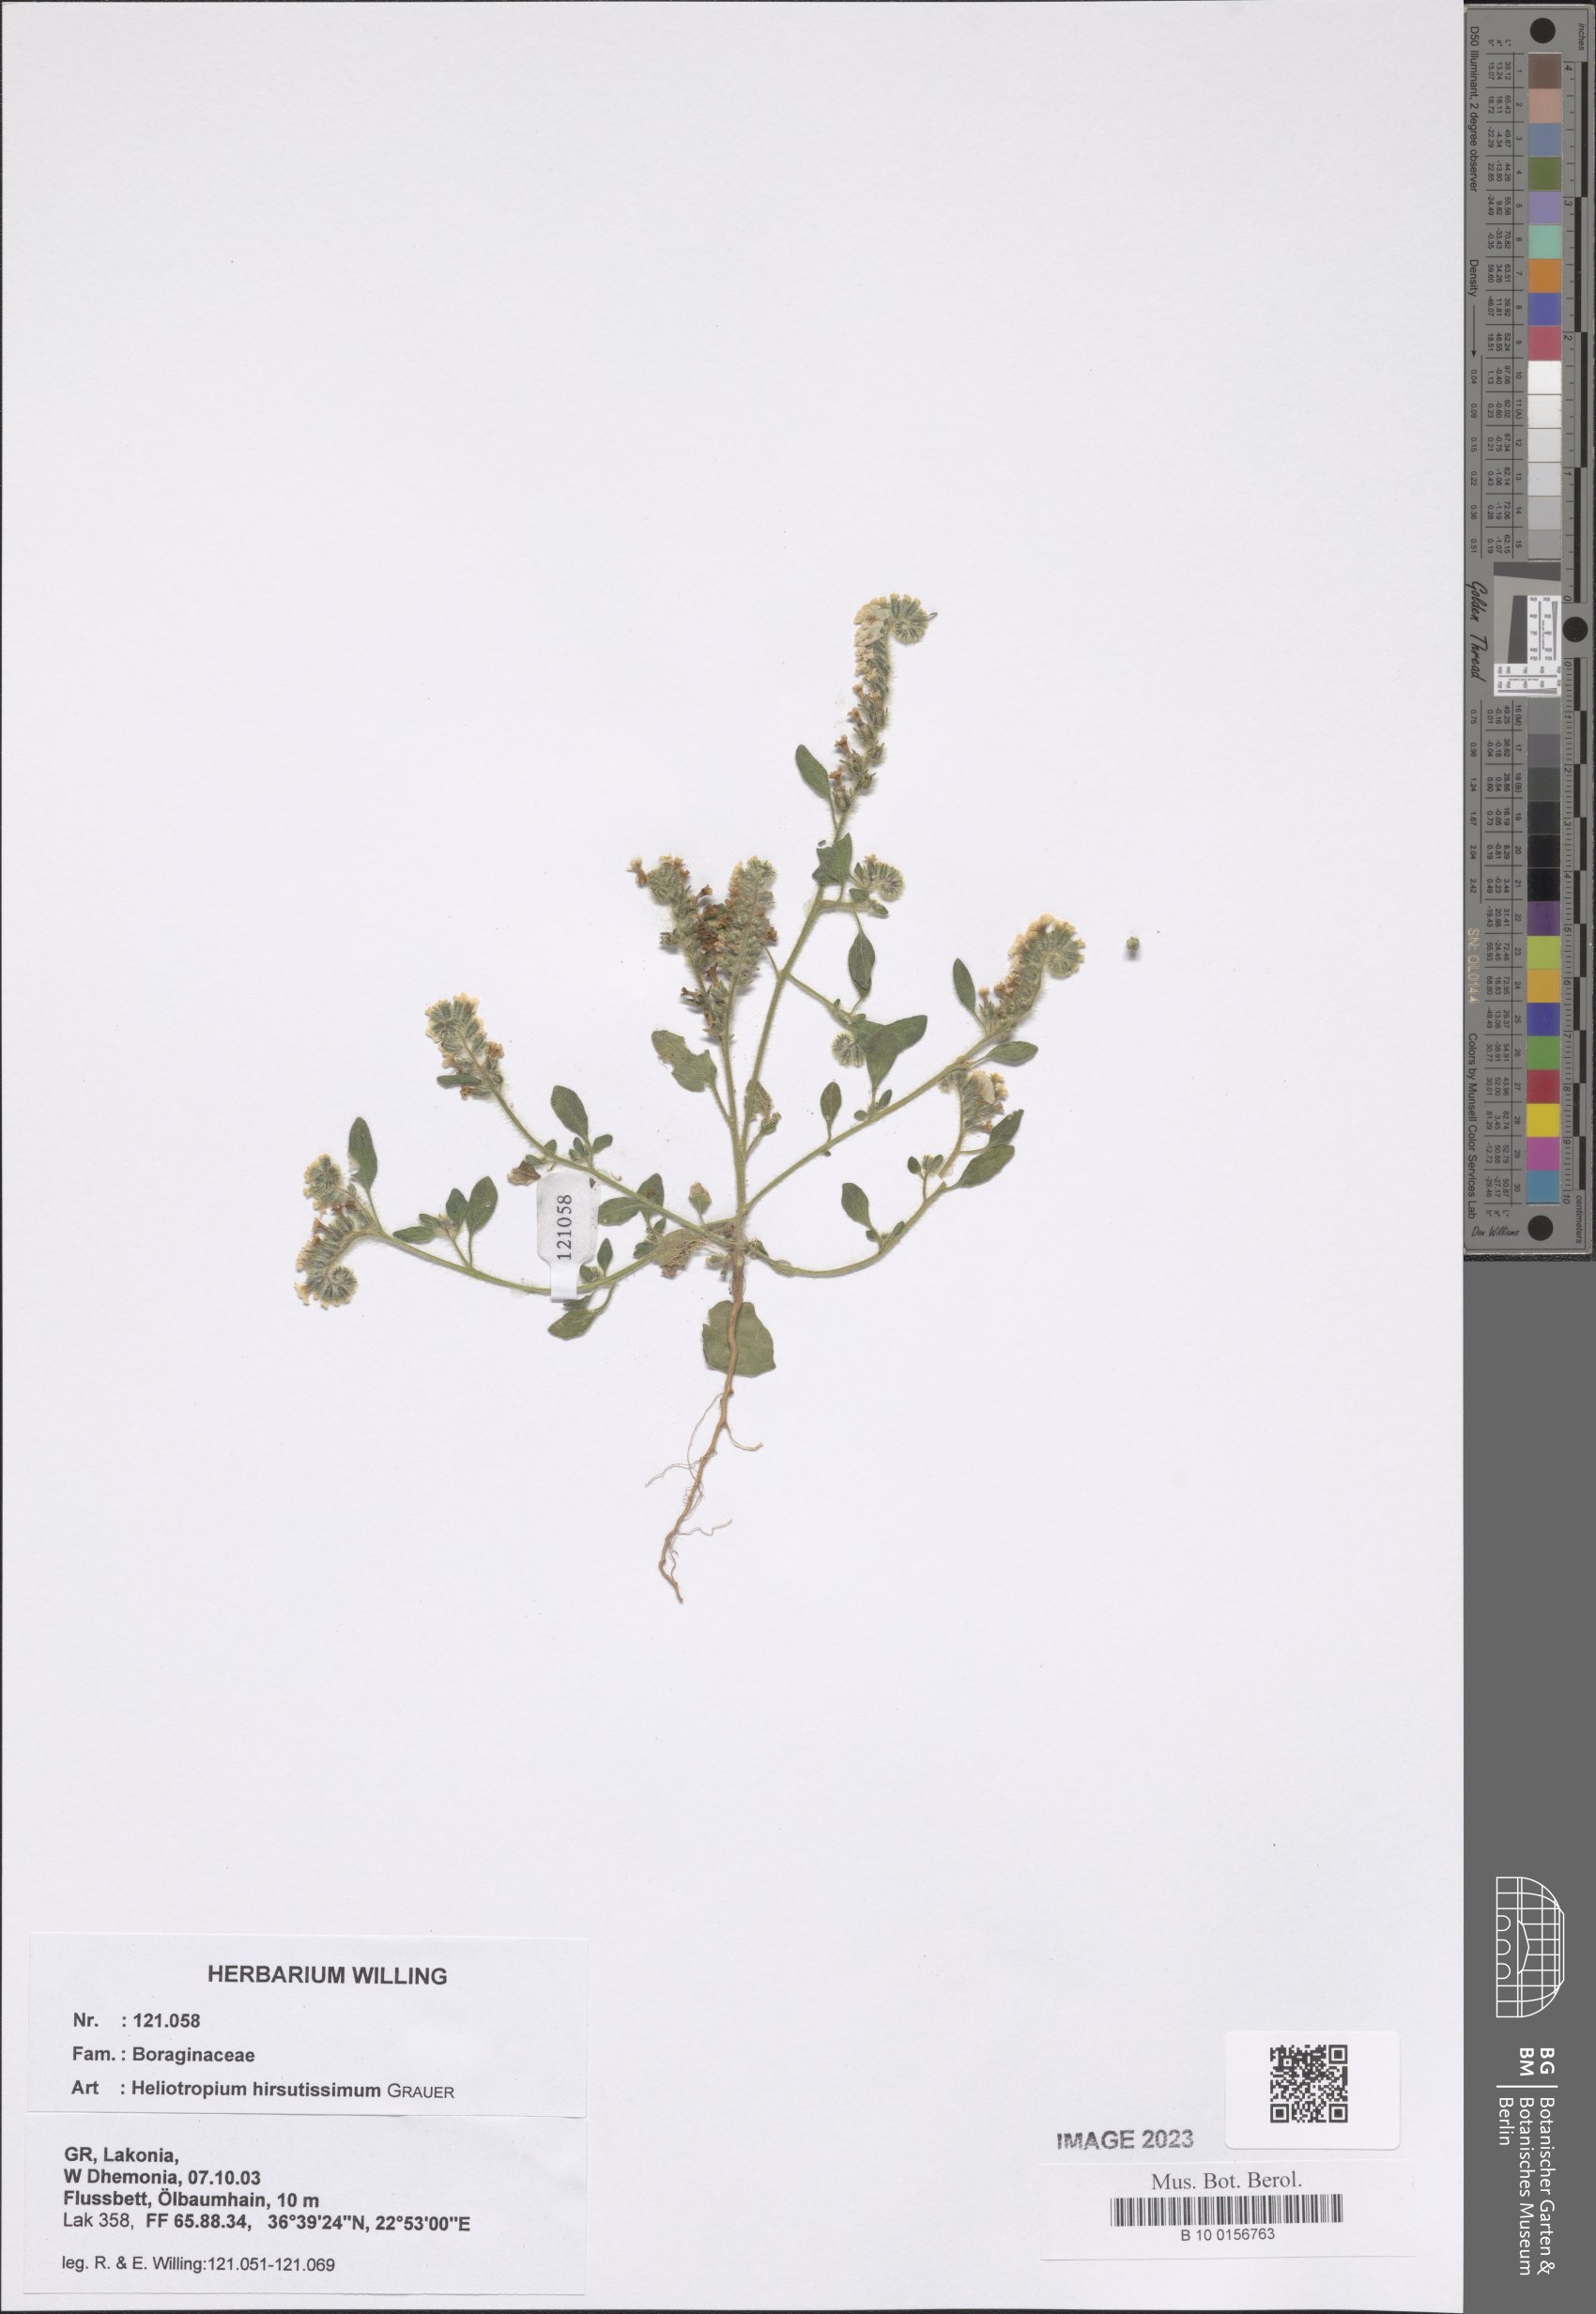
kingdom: Plantae
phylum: Tracheophyta
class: Magnoliopsida
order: Boraginales
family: Heliotropiaceae
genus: Heliotropium
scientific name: Heliotropium hirsutissimum
